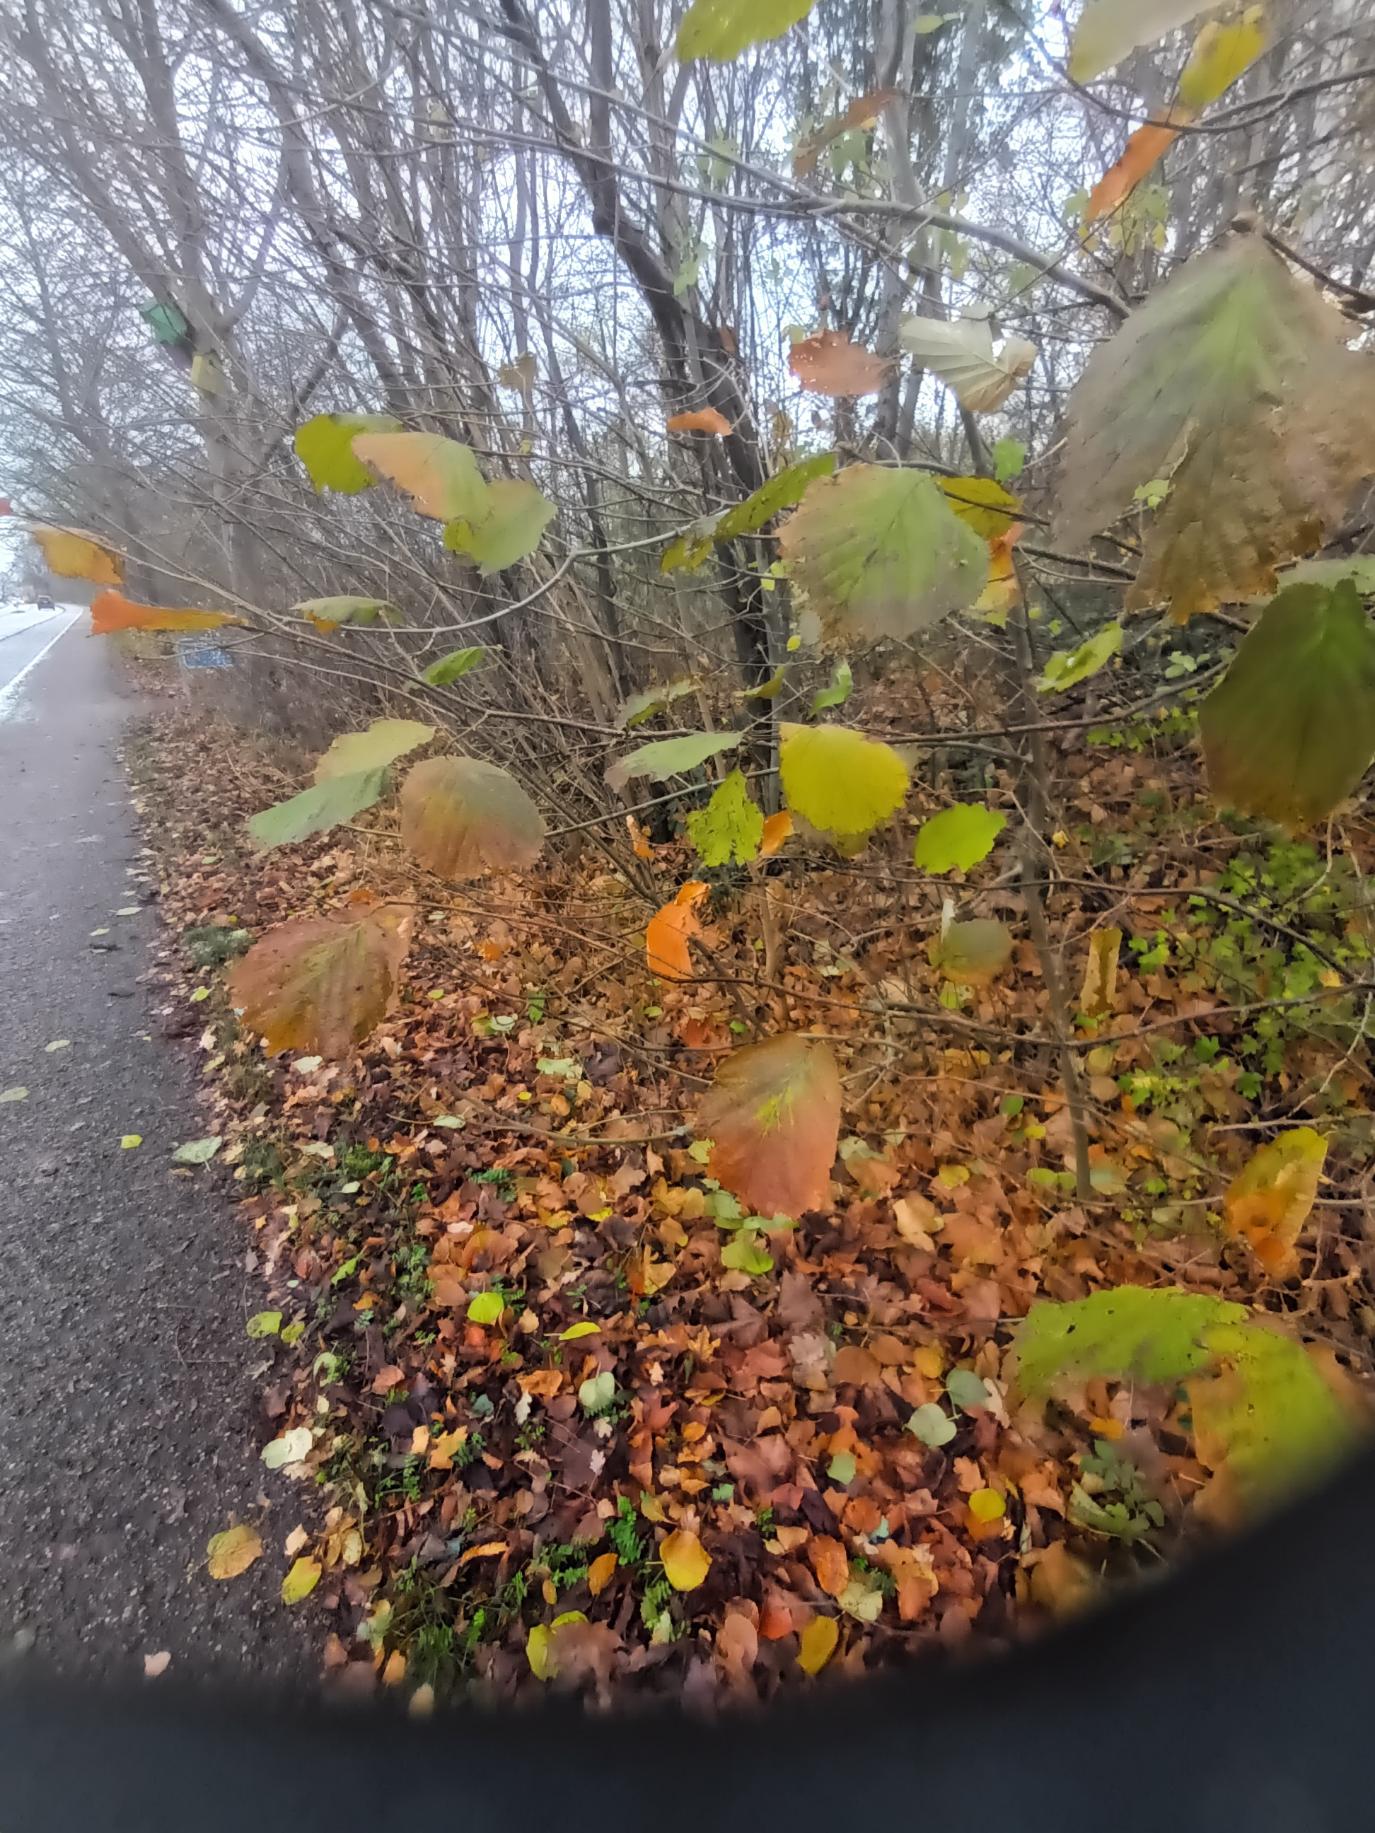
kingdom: Plantae
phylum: Tracheophyta
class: Magnoliopsida
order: Fagales
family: Betulaceae
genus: Corylus
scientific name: Corylus avellana
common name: Hassel
